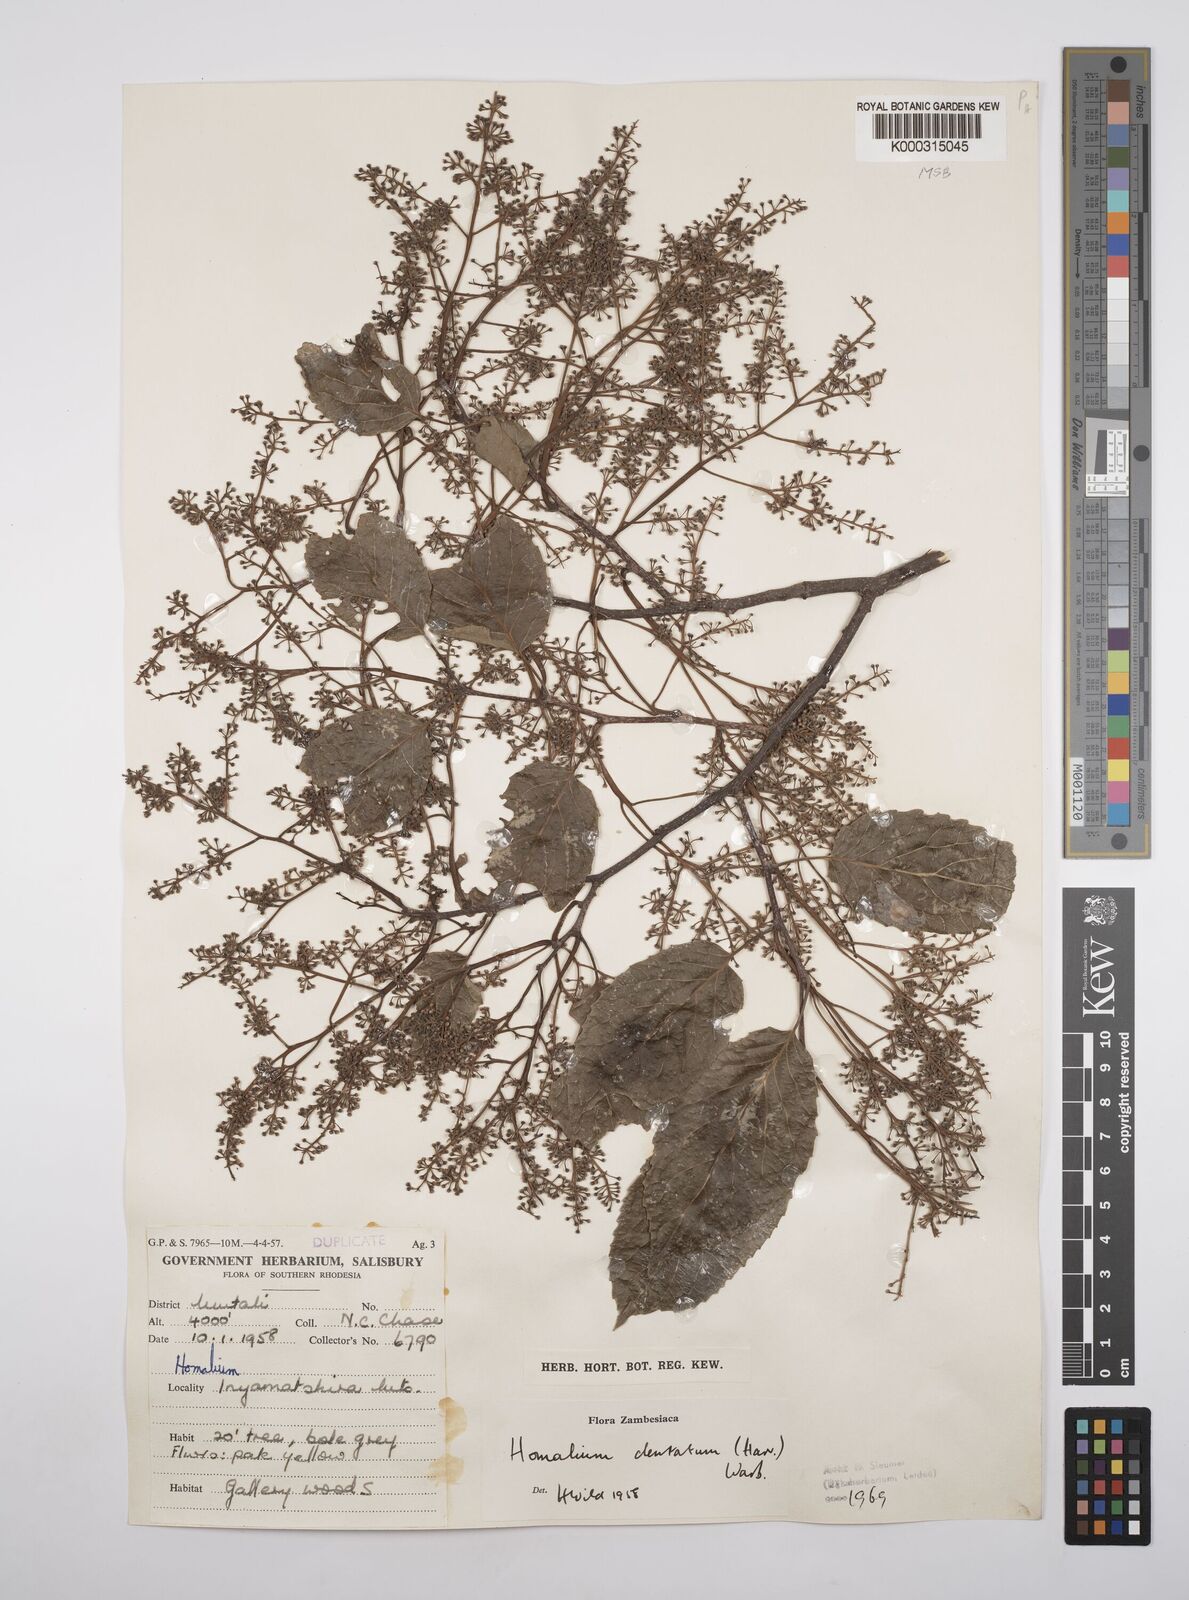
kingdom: Plantae
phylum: Tracheophyta
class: Magnoliopsida
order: Malpighiales
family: Salicaceae
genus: Homalium
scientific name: Homalium dentatum
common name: Brown ironwood
